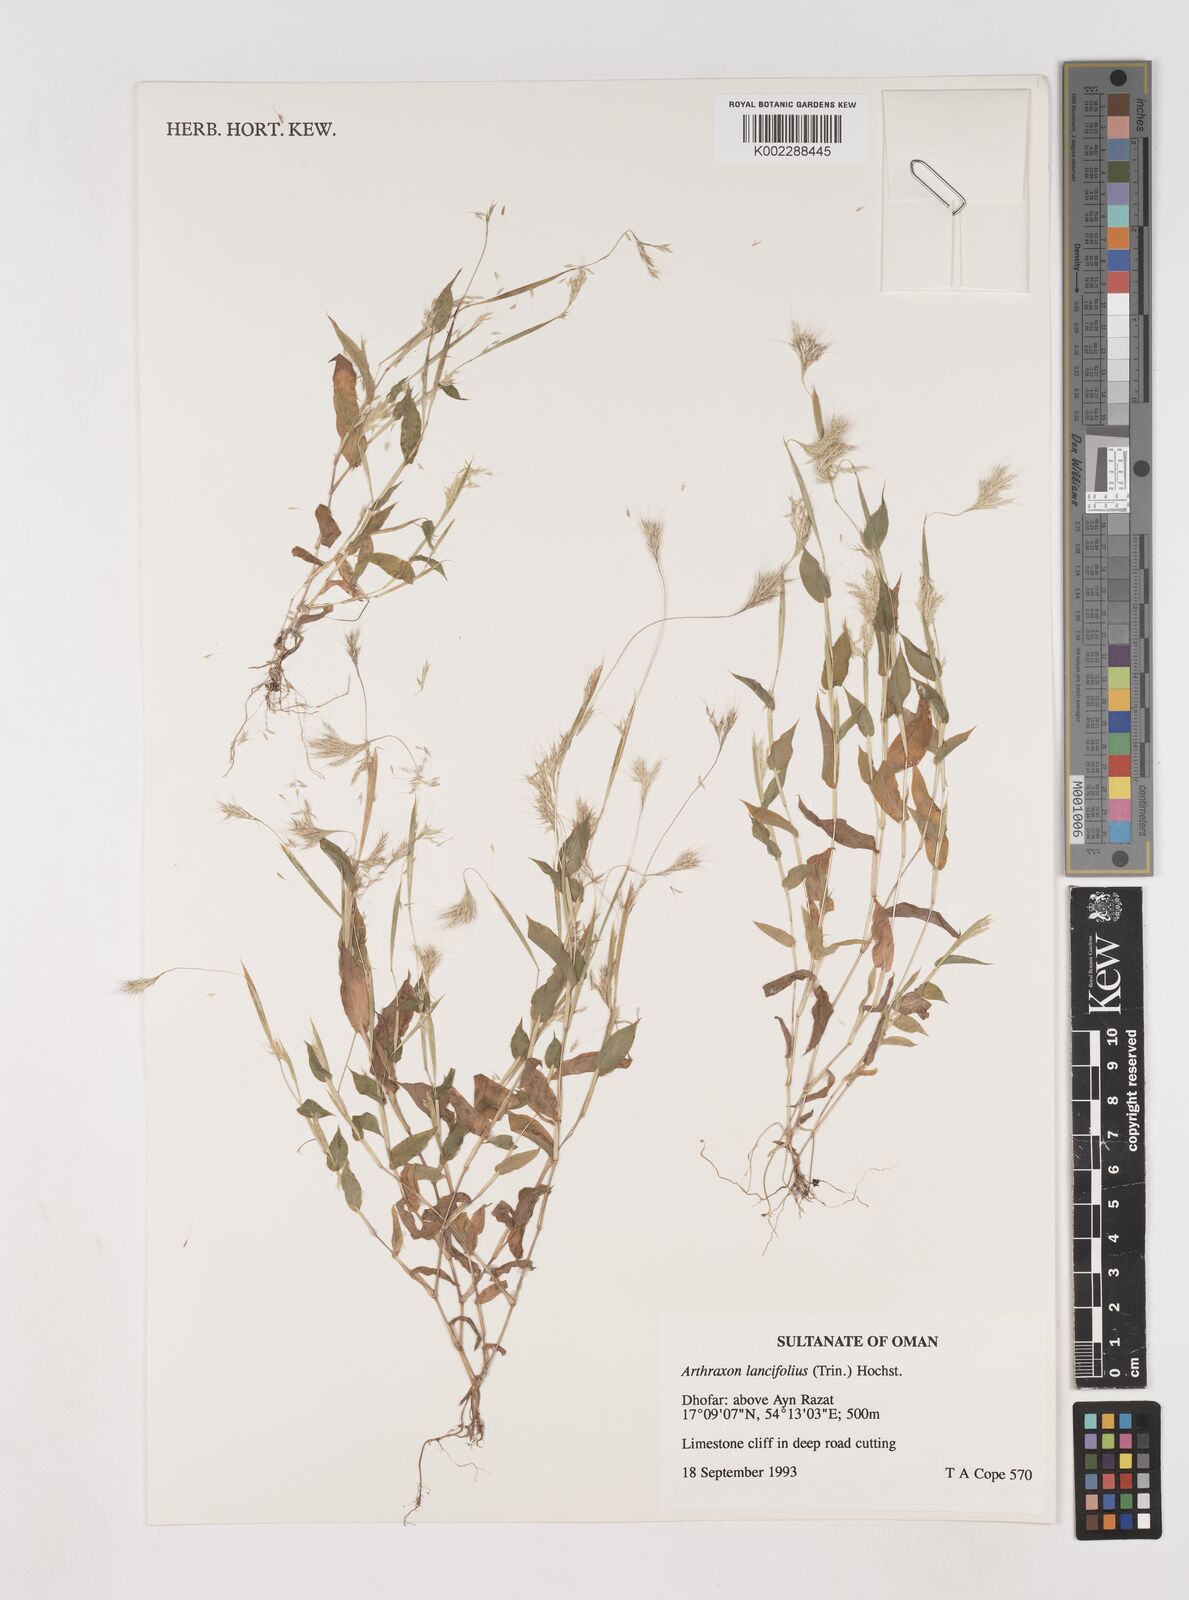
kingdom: Plantae
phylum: Tracheophyta
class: Liliopsida
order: Poales
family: Poaceae
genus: Arthraxon
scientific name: Arthraxon lancifolius
